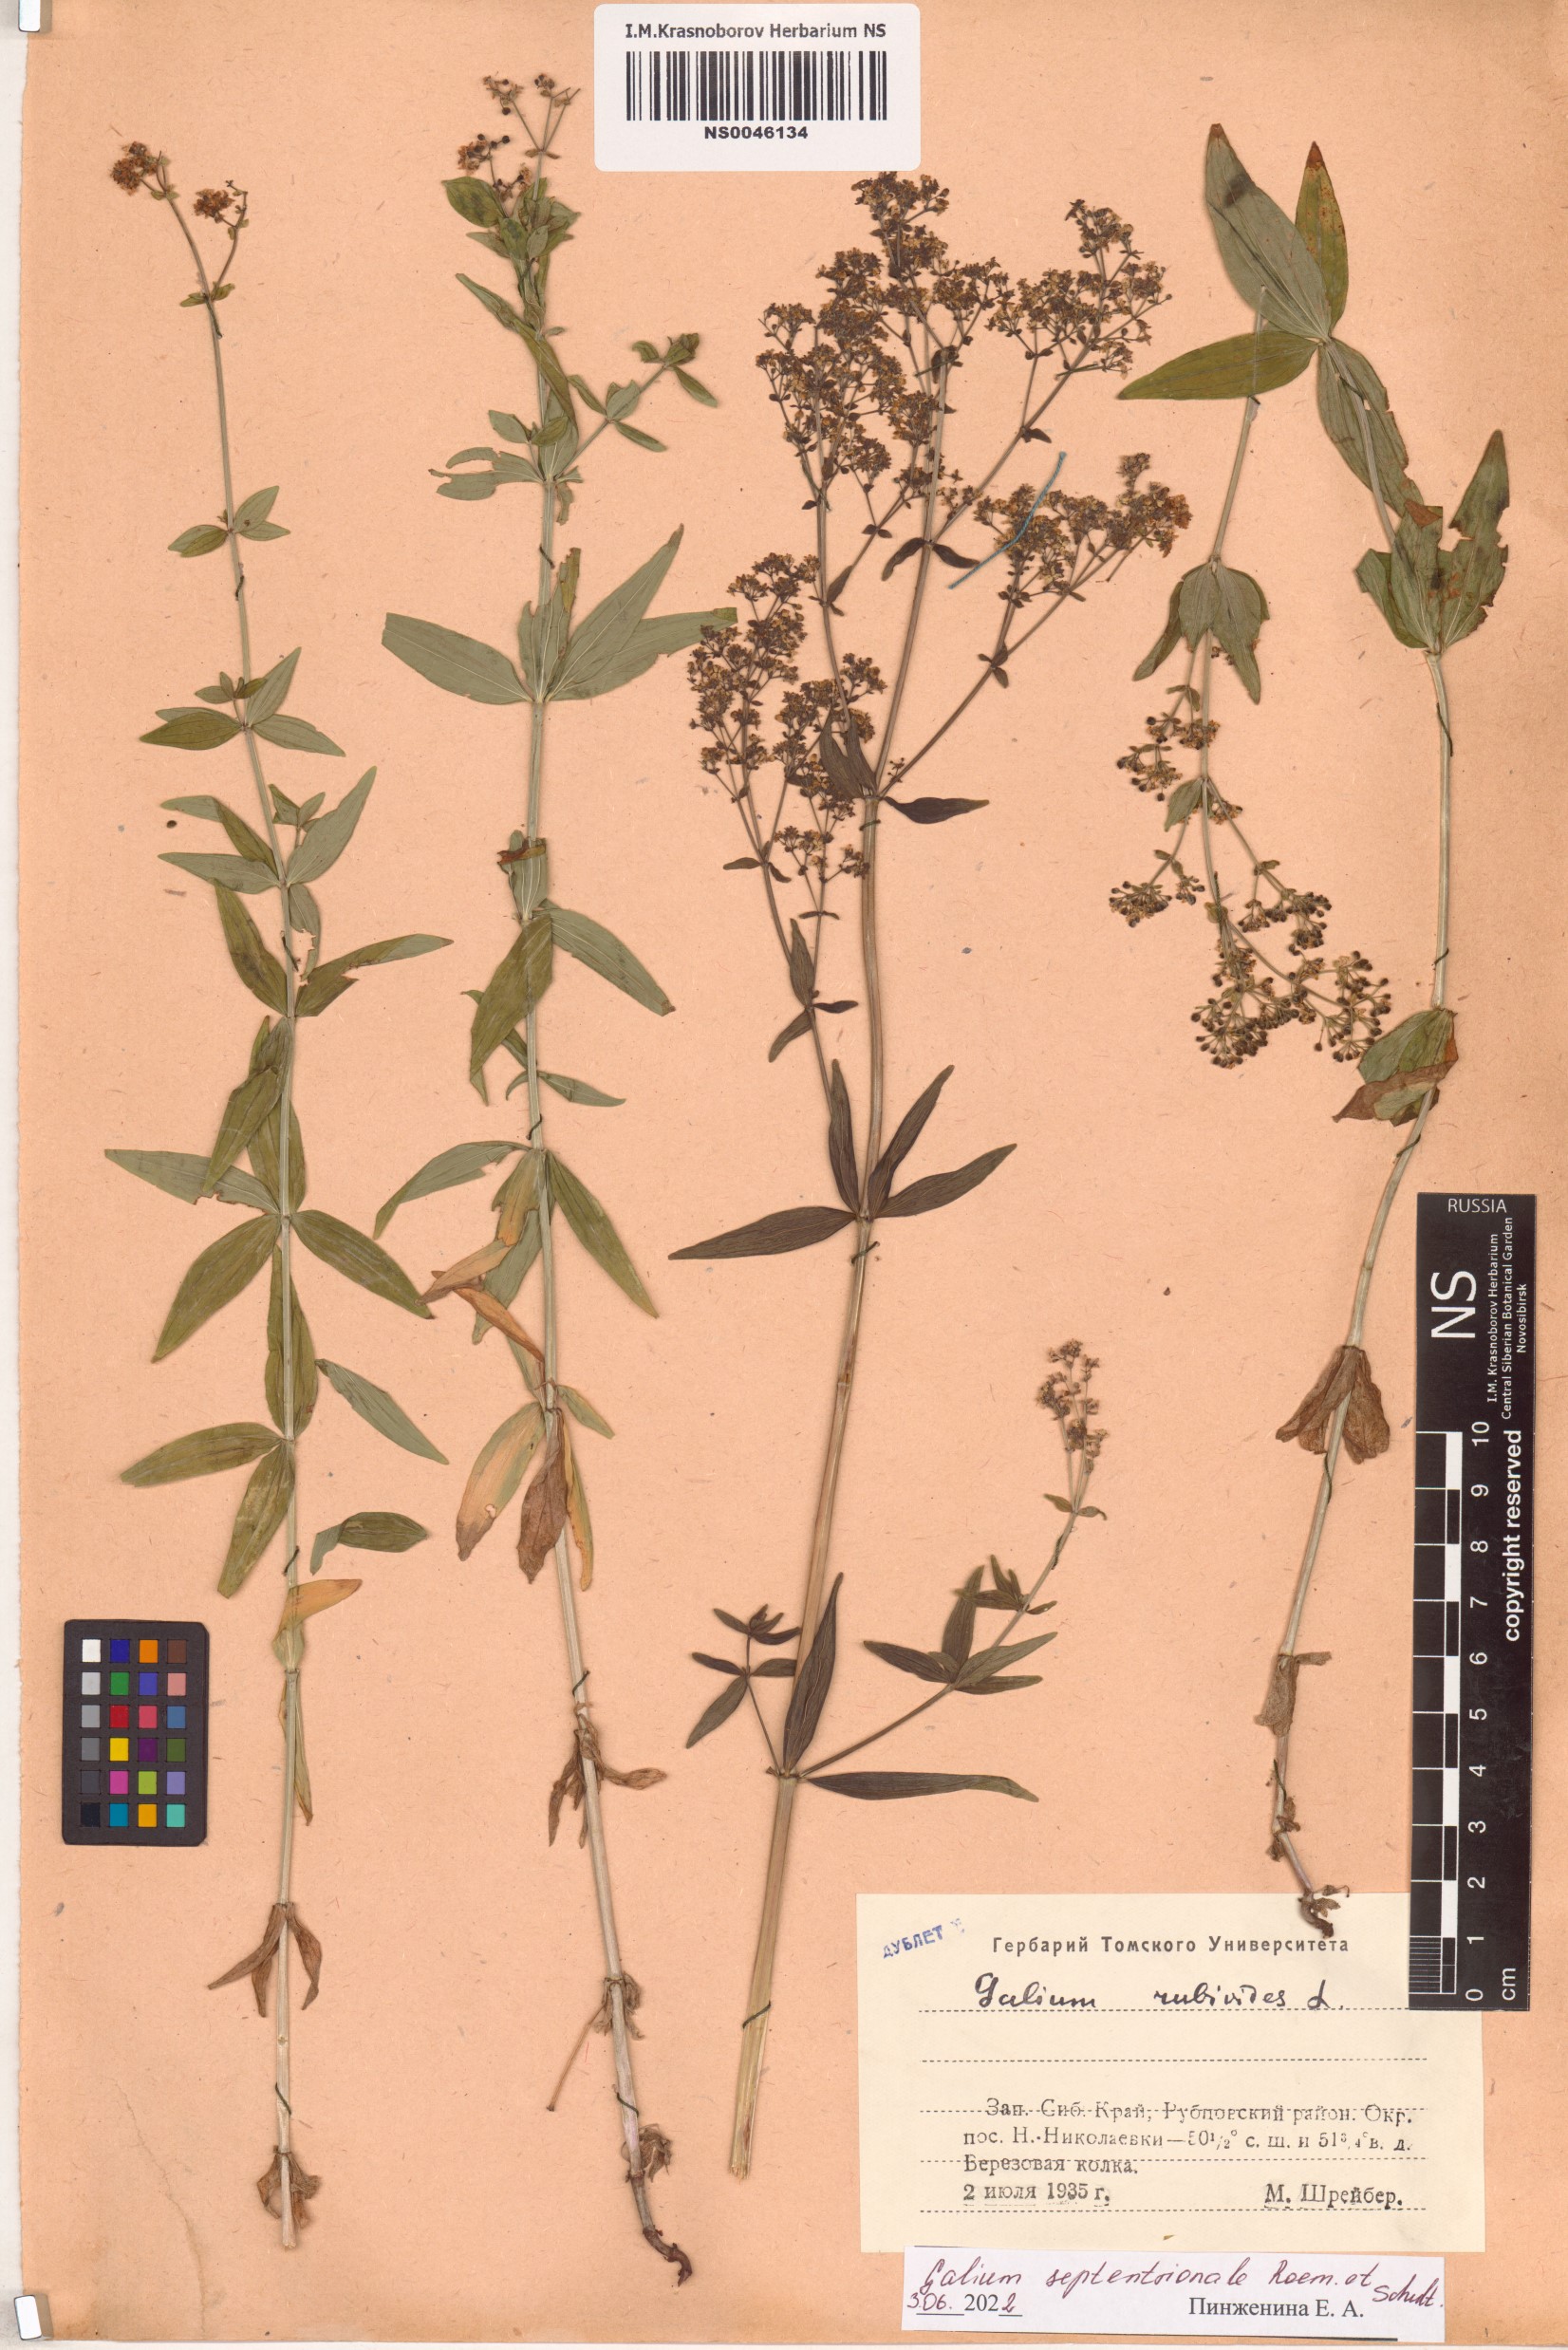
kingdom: Plantae
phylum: Tracheophyta
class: Magnoliopsida
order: Gentianales
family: Rubiaceae
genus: Galium
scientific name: Galium boreale
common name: Northern bedstraw
